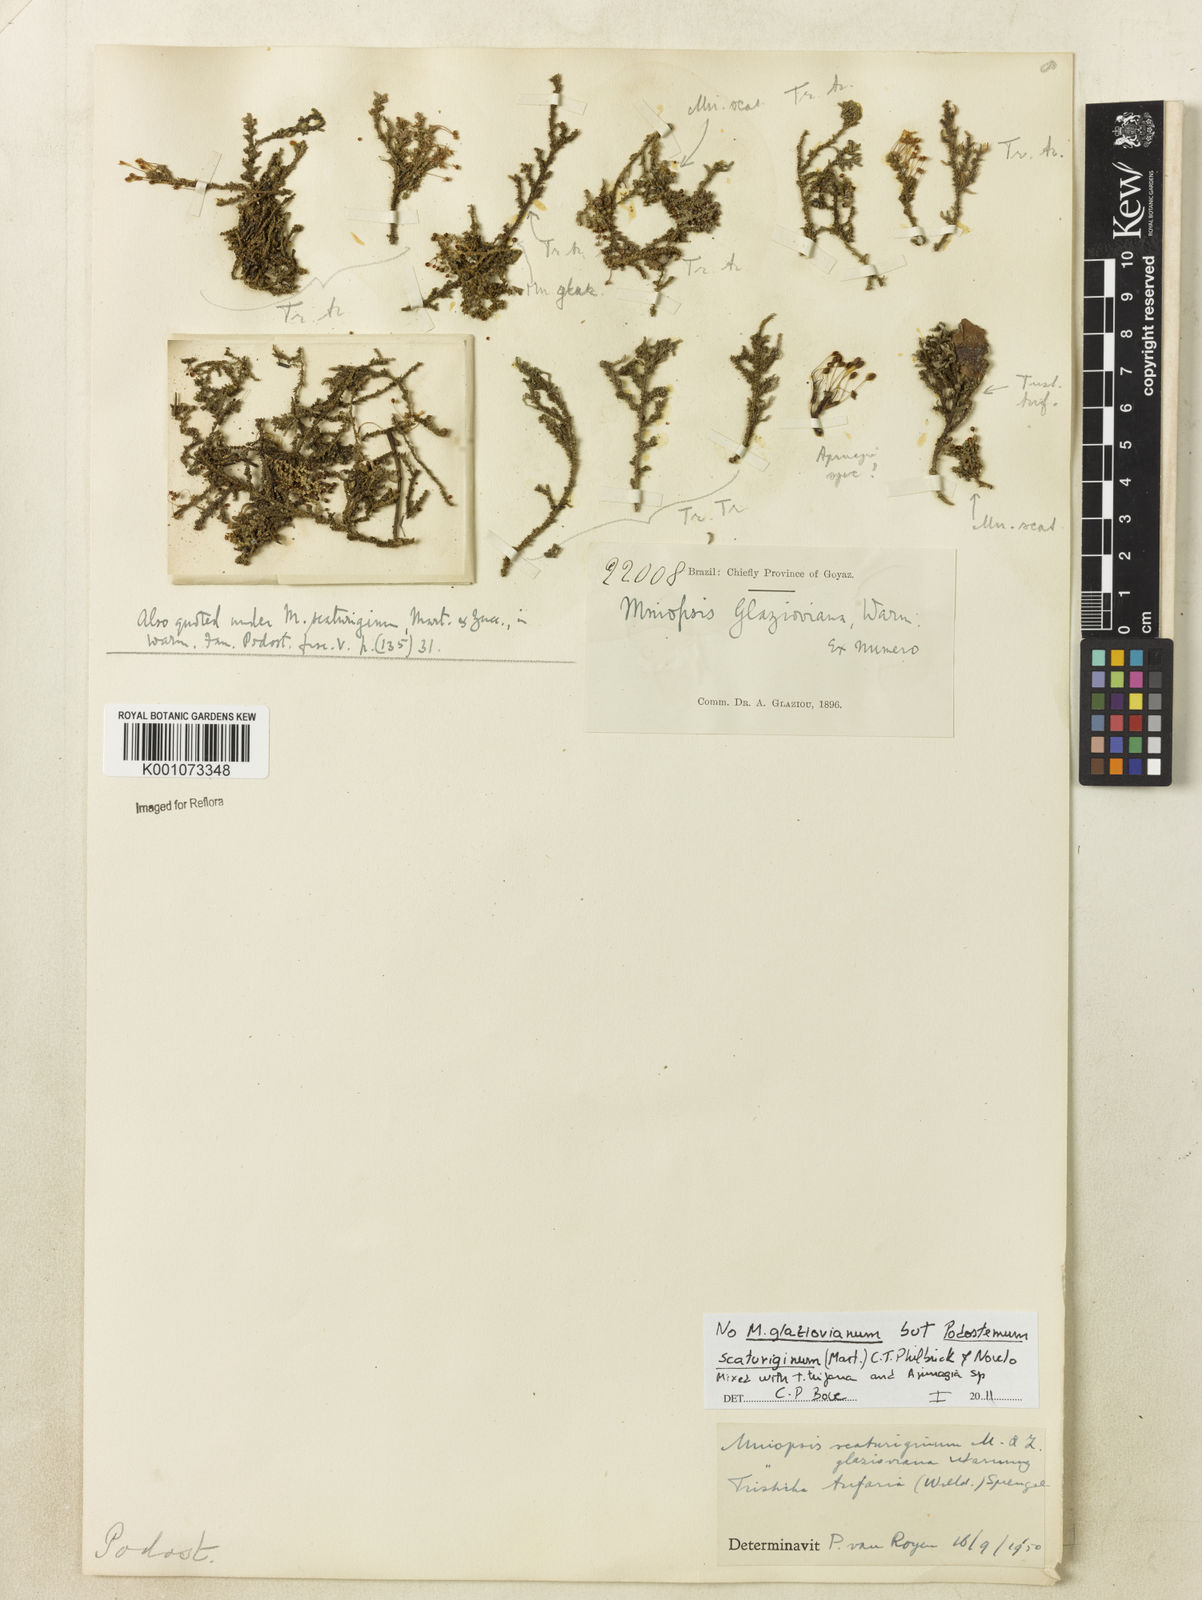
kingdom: Plantae
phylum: Tracheophyta
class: Magnoliopsida
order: Malpighiales
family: Podostemaceae
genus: Podostemum
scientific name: Podostemum
